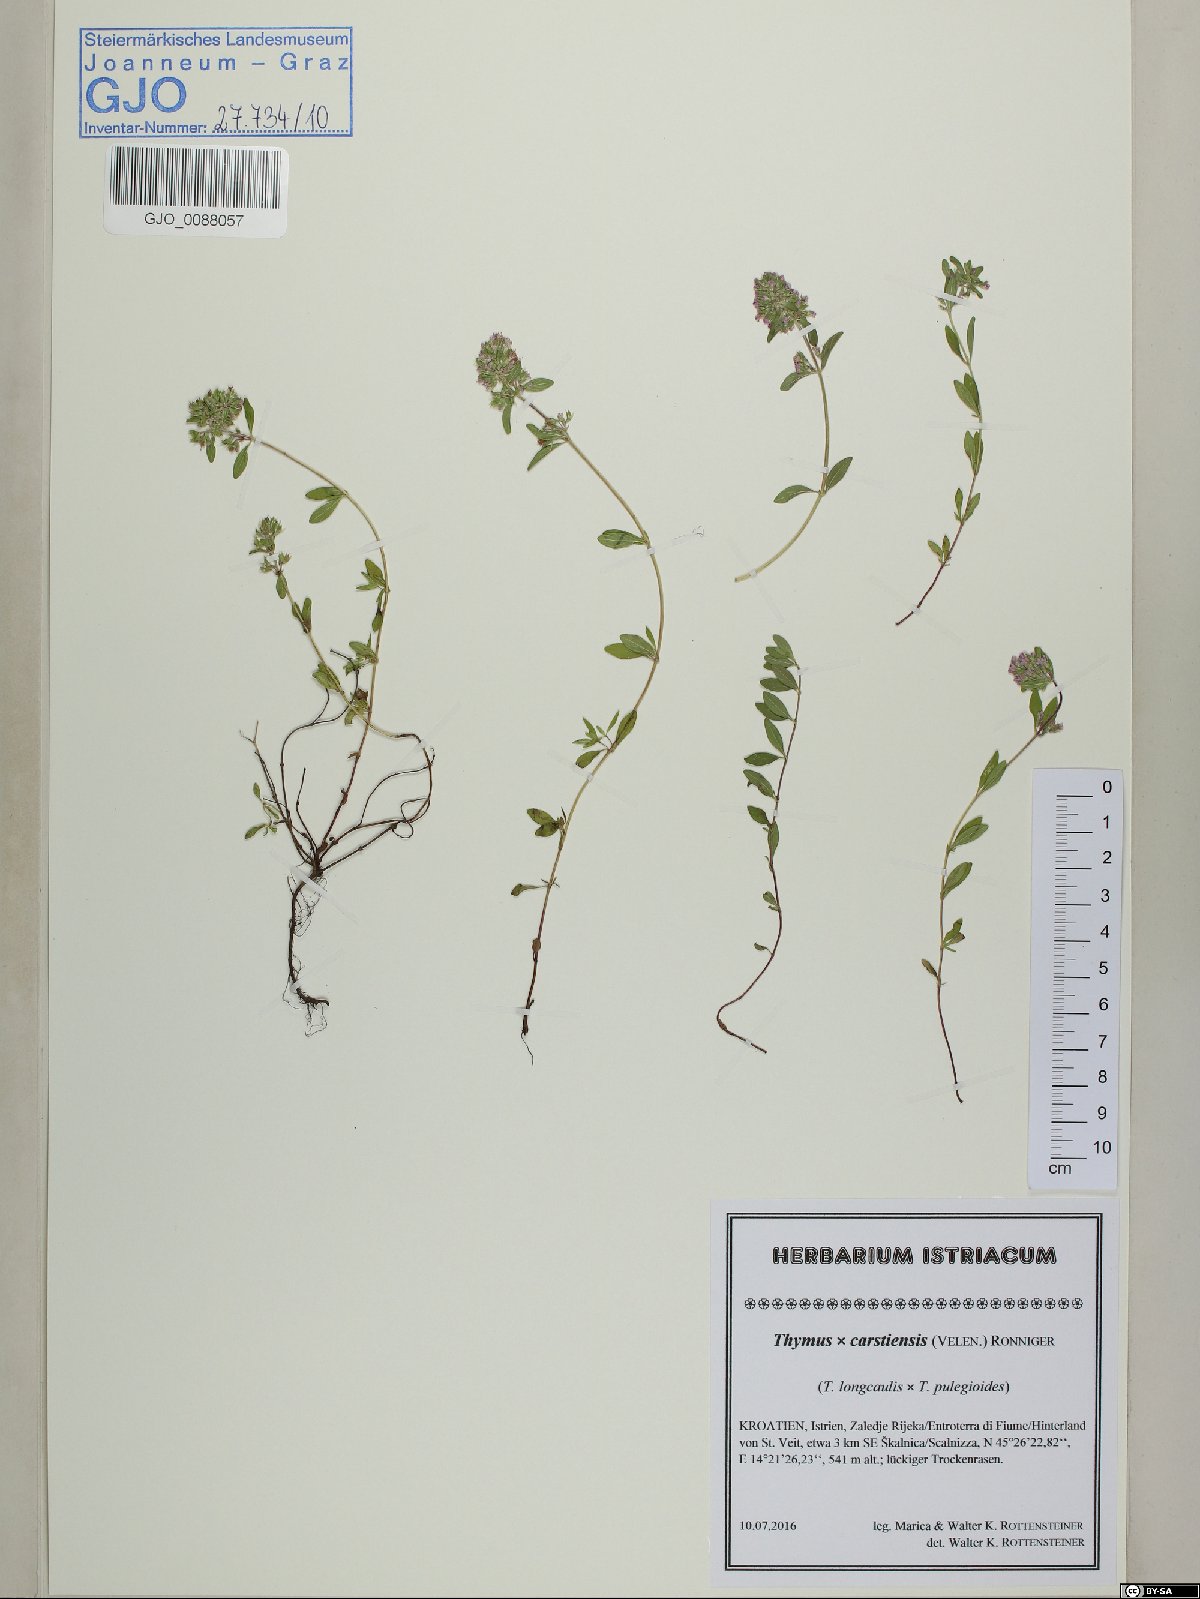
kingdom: Plantae
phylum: Tracheophyta
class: Magnoliopsida
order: Lamiales
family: Lamiaceae
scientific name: Lamiaceae
